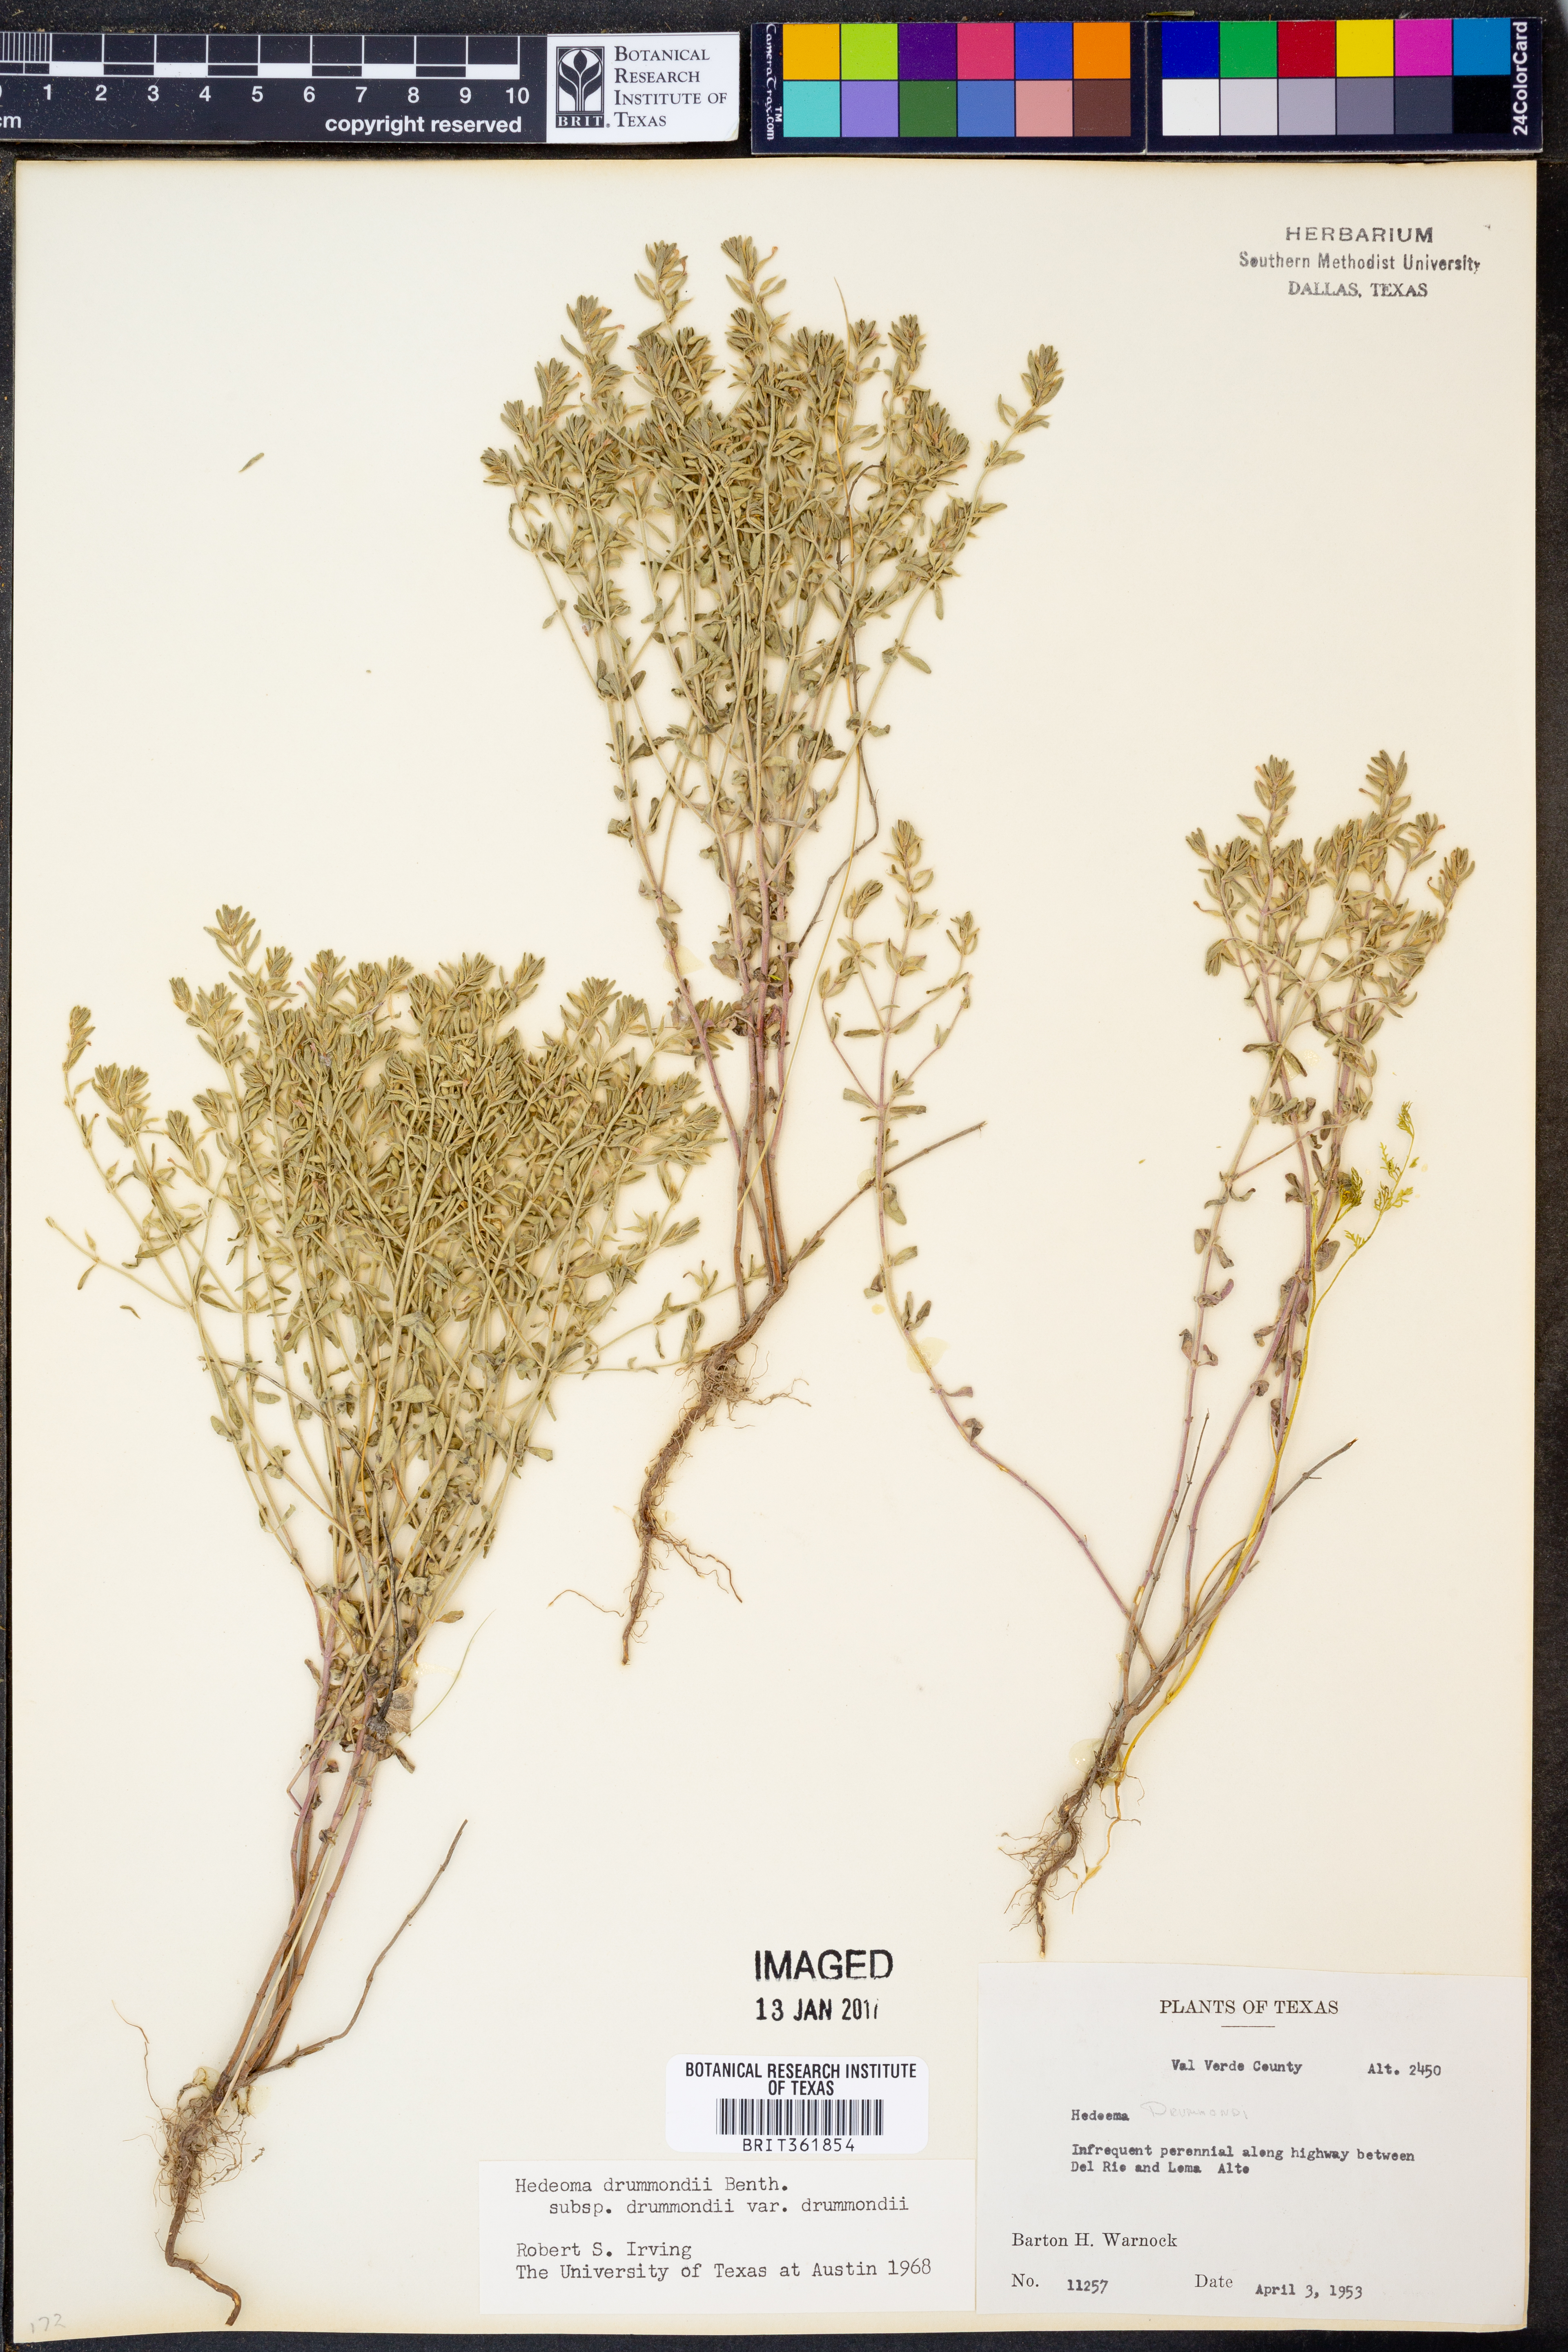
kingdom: Plantae
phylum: Tracheophyta
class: Magnoliopsida
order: Lamiales
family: Lamiaceae
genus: Hedeoma
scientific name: Hedeoma drummondii
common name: New mexico pennyroyal
